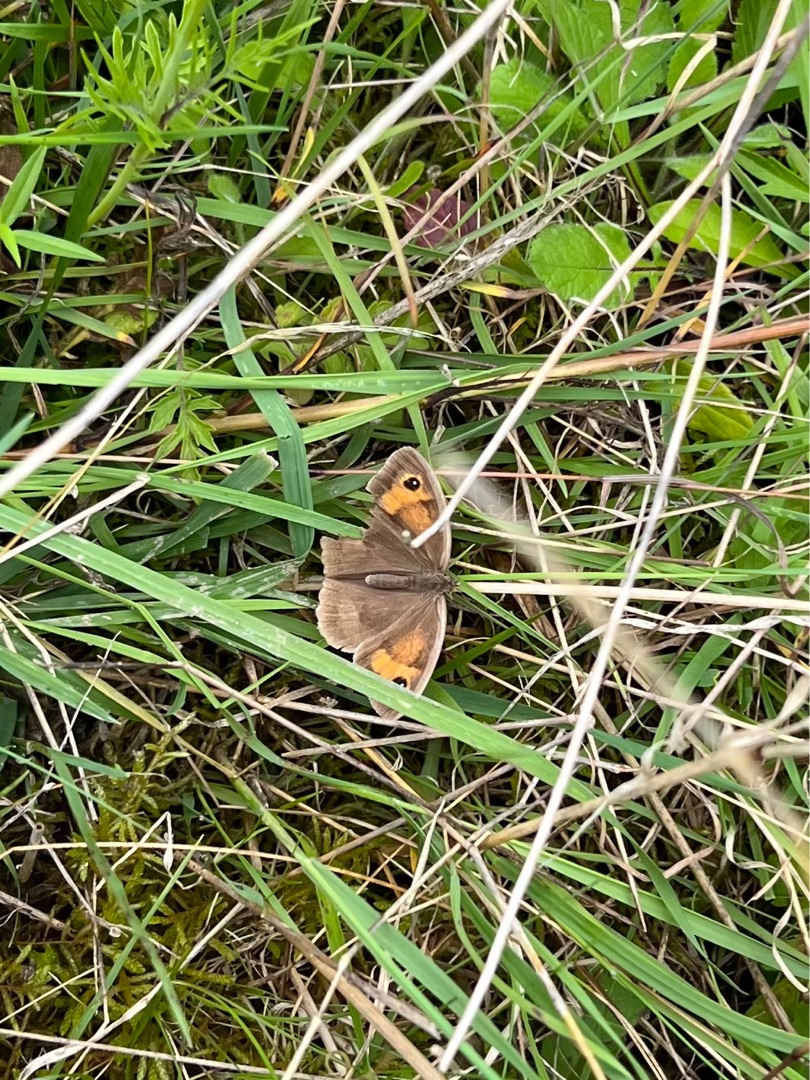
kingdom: Animalia
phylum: Arthropoda
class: Insecta
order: Lepidoptera
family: Nymphalidae
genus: Maniola
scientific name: Maniola jurtina
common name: Græsrandøje
